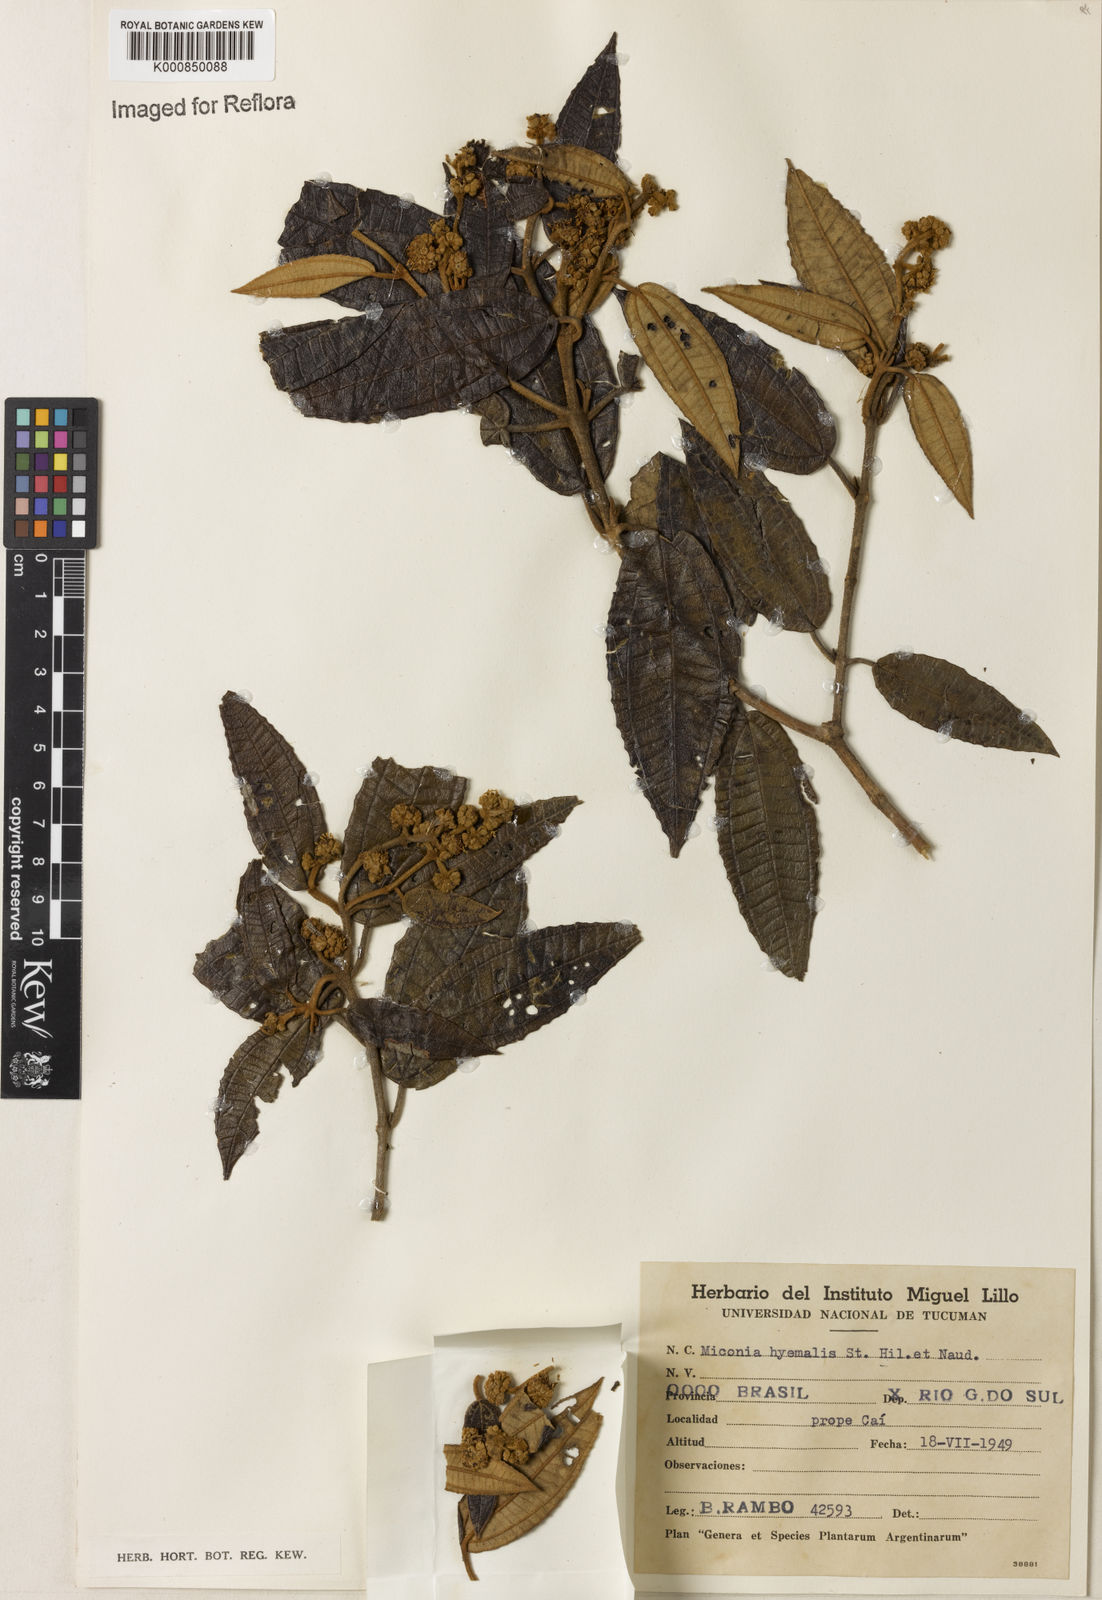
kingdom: Plantae
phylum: Tracheophyta
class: Magnoliopsida
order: Myrtales
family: Melastomataceae
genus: Miconia
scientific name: Miconia hyemalis
